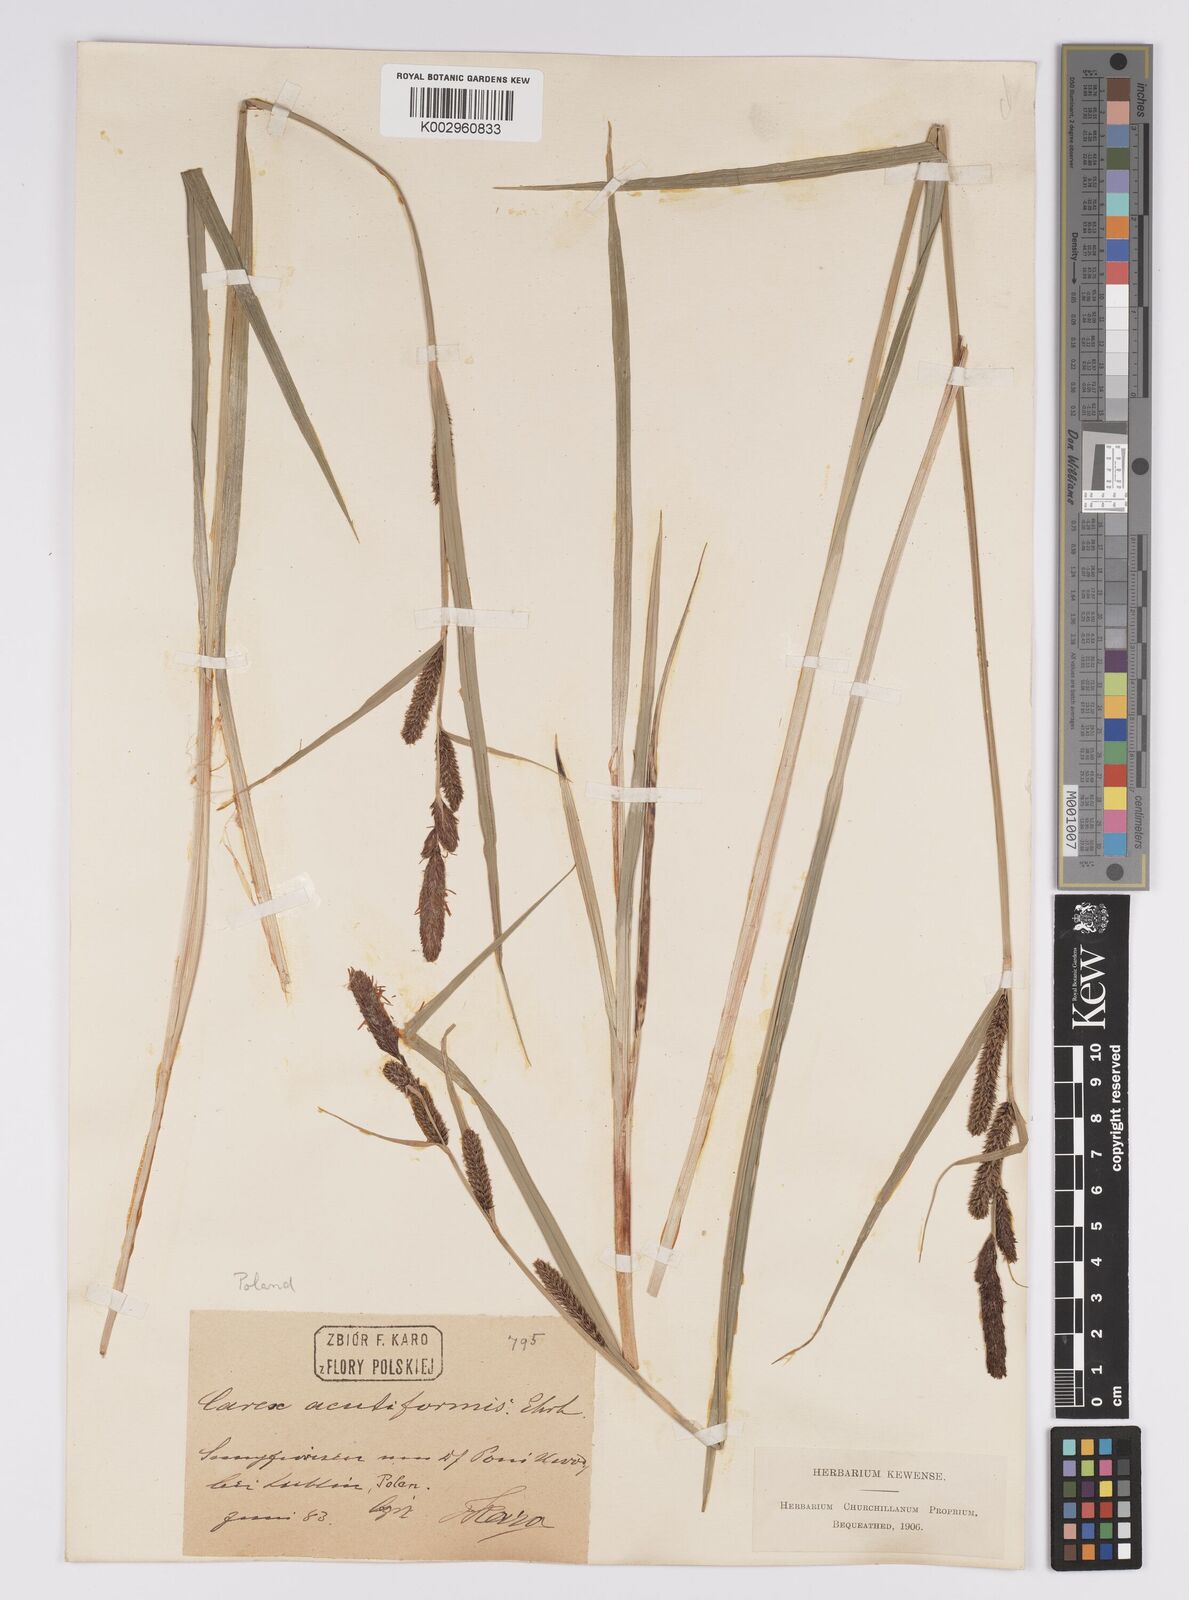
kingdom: Plantae
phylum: Tracheophyta
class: Liliopsida
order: Poales
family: Cyperaceae
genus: Carex
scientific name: Carex acutiformis
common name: Lesser pond-sedge
